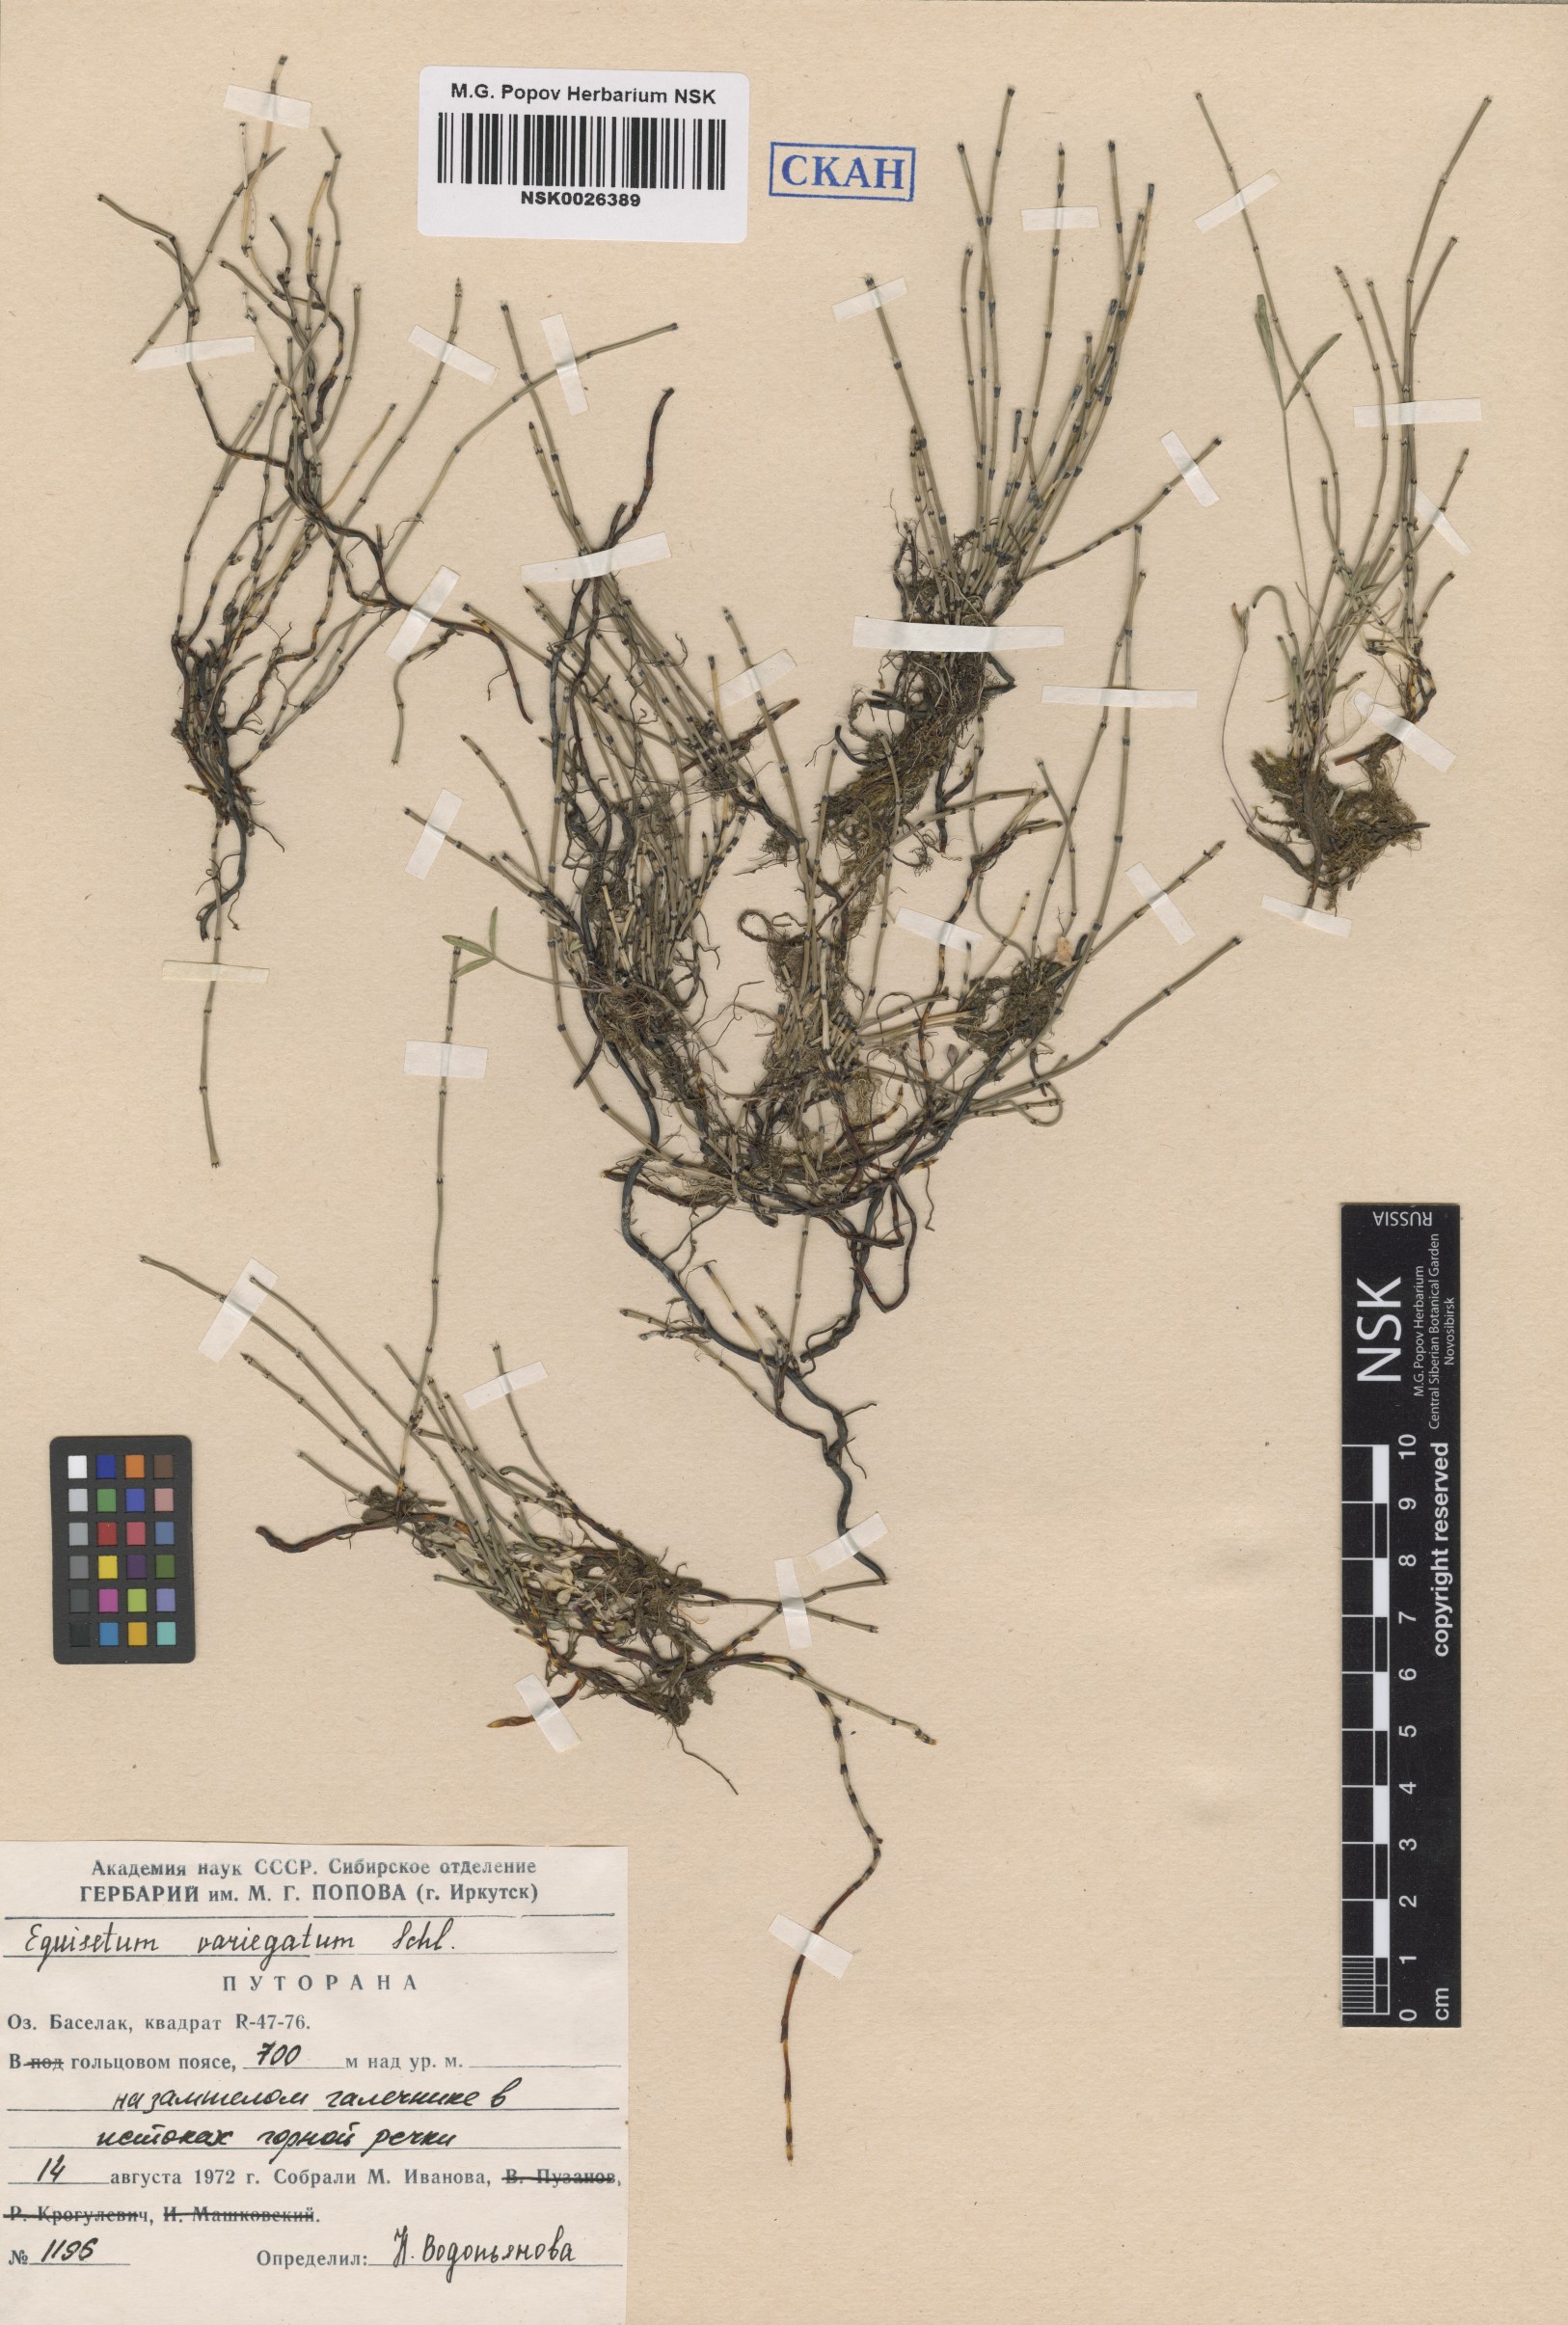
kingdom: Plantae
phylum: Tracheophyta
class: Polypodiopsida
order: Equisetales
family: Equisetaceae
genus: Equisetum
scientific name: Equisetum variegatum
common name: Variegated horsetail
